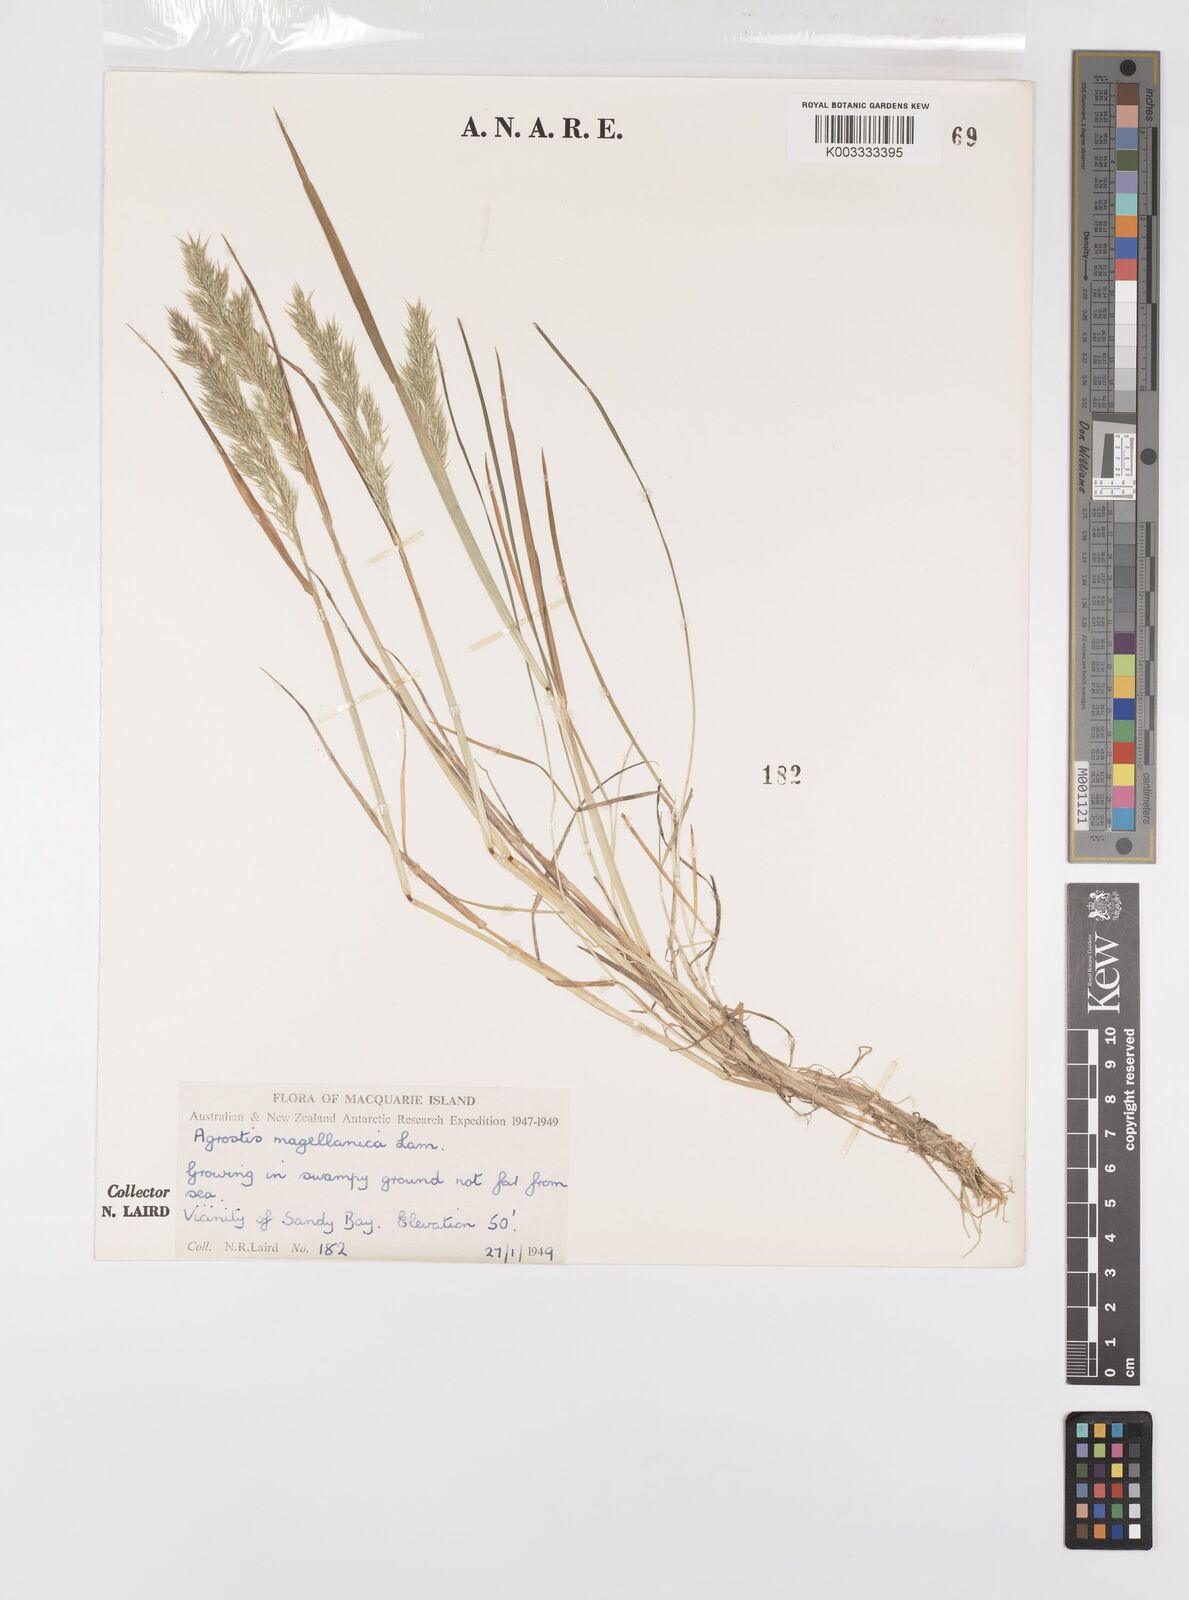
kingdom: Plantae
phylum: Tracheophyta
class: Liliopsida
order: Poales
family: Poaceae
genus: Polypogon
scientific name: Polypogon magellanicus
